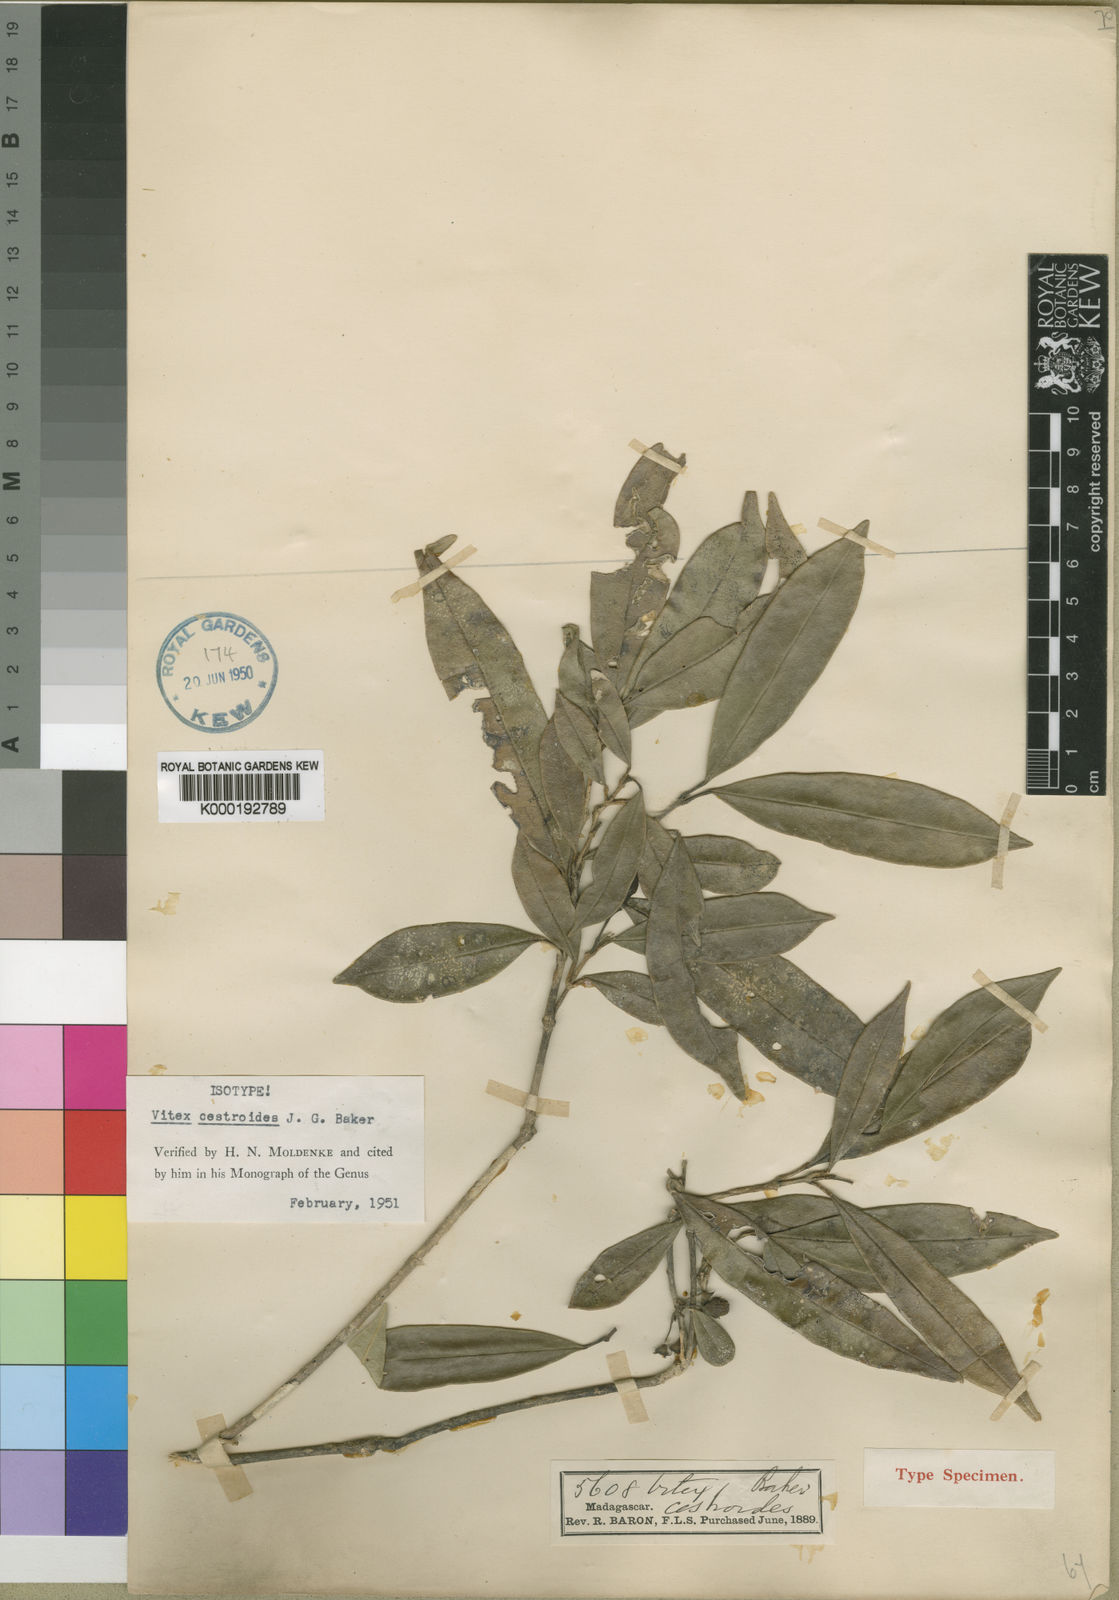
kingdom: Plantae
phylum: Tracheophyta
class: Magnoliopsida
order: Lamiales
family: Lamiaceae
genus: Vitex
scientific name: Vitex cestroides
